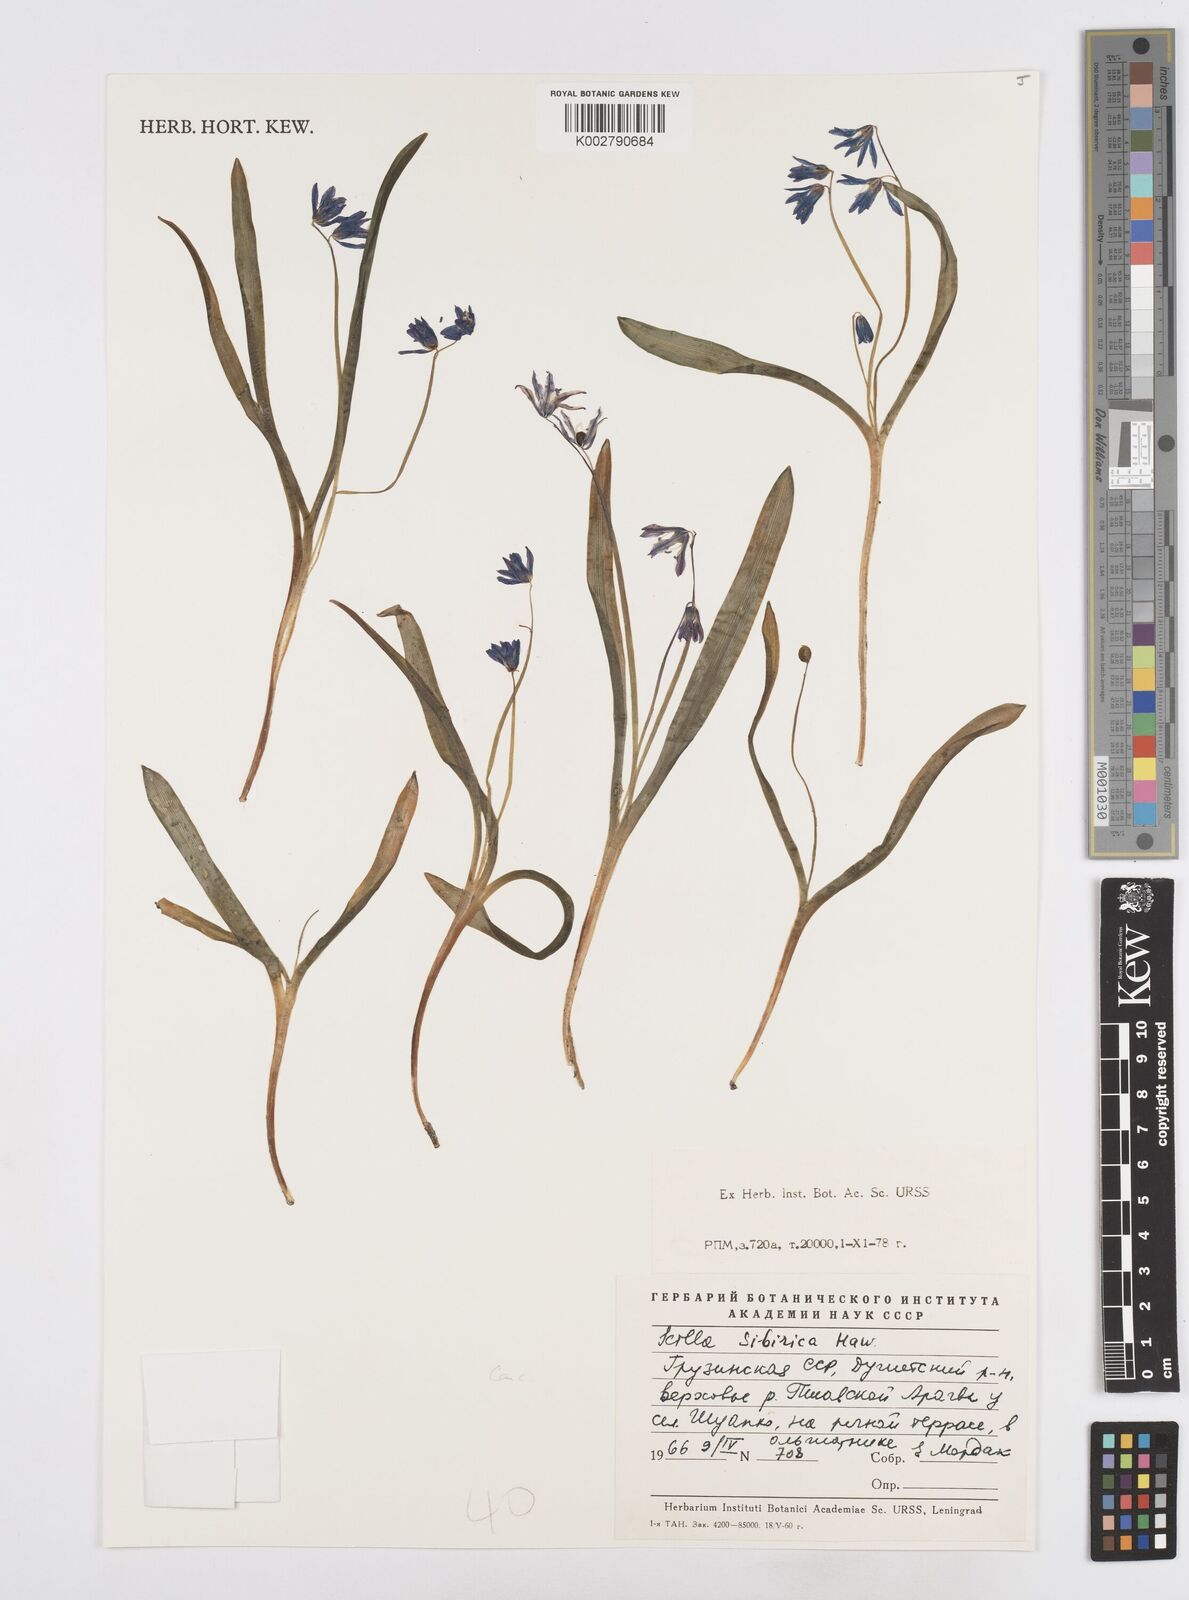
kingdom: Plantae
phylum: Tracheophyta
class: Liliopsida
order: Asparagales
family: Asparagaceae
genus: Scilla
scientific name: Scilla siberica
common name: Siberian squill
